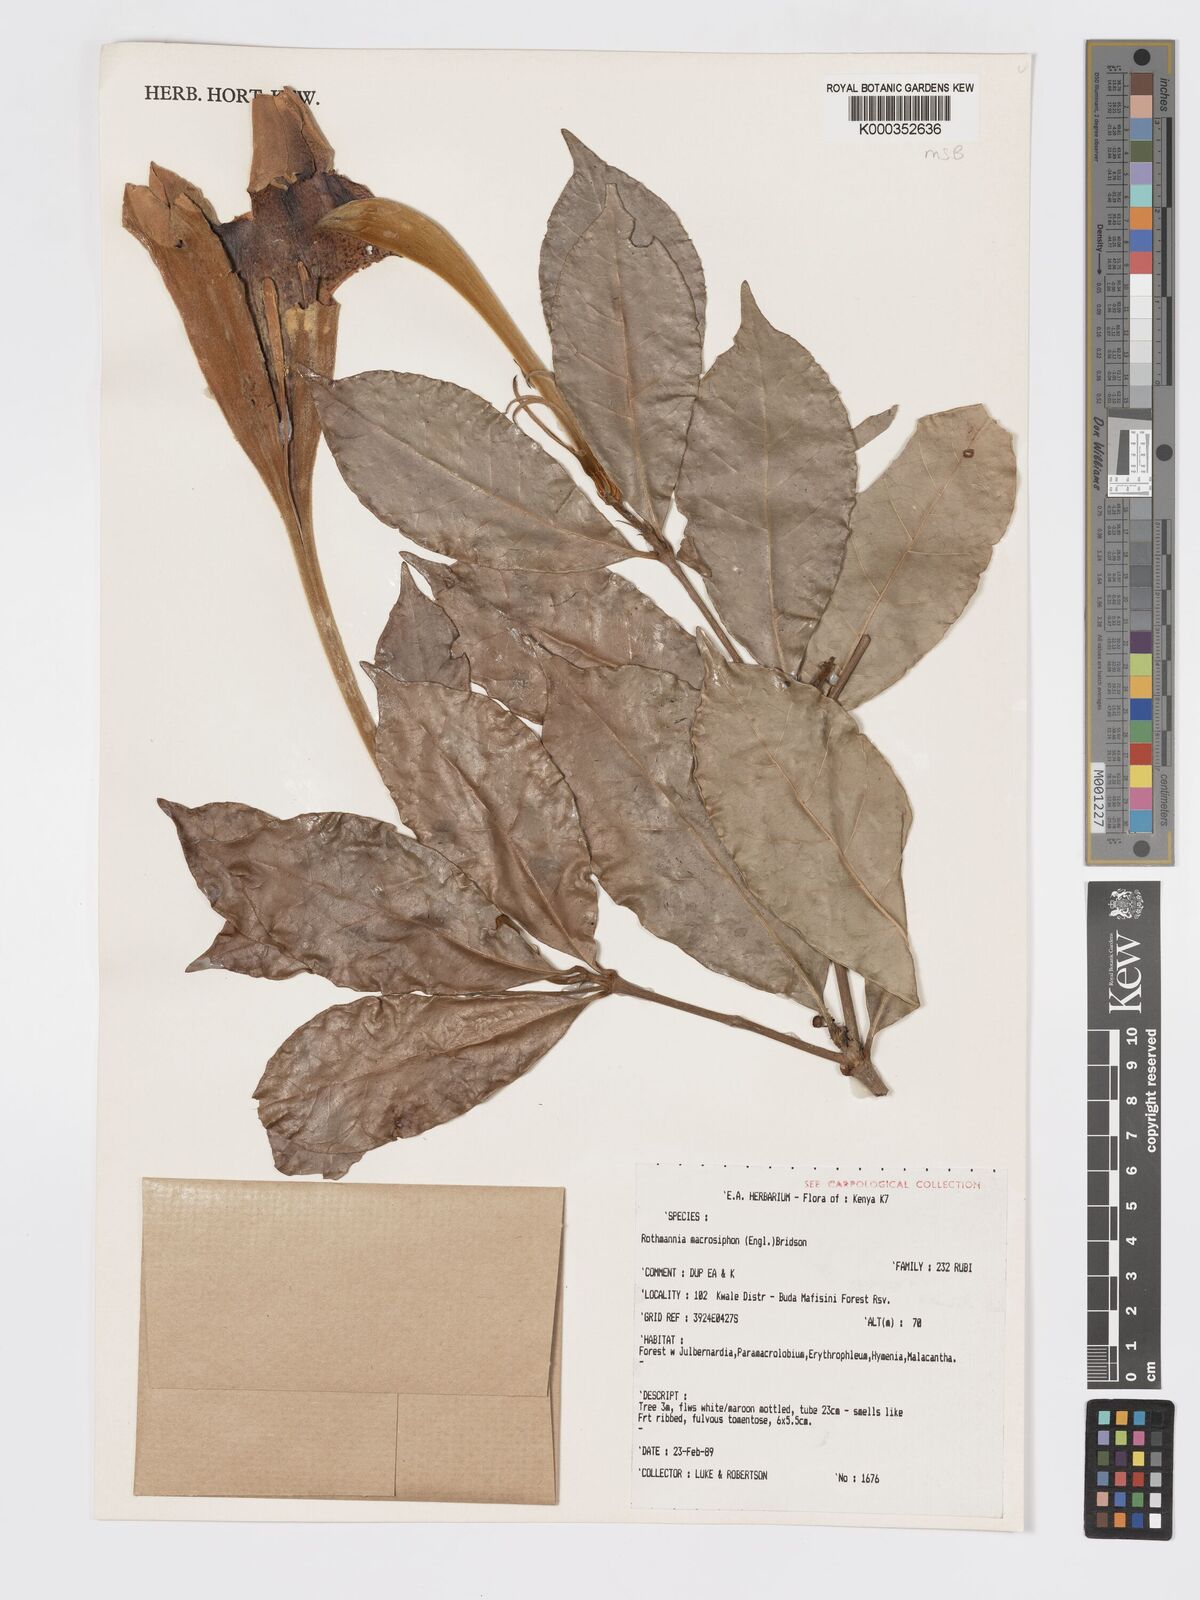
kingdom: Plantae
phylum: Tracheophyta
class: Magnoliopsida
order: Gentianales
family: Rubiaceae
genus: Rothmannia
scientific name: Rothmannia macrosiphon
